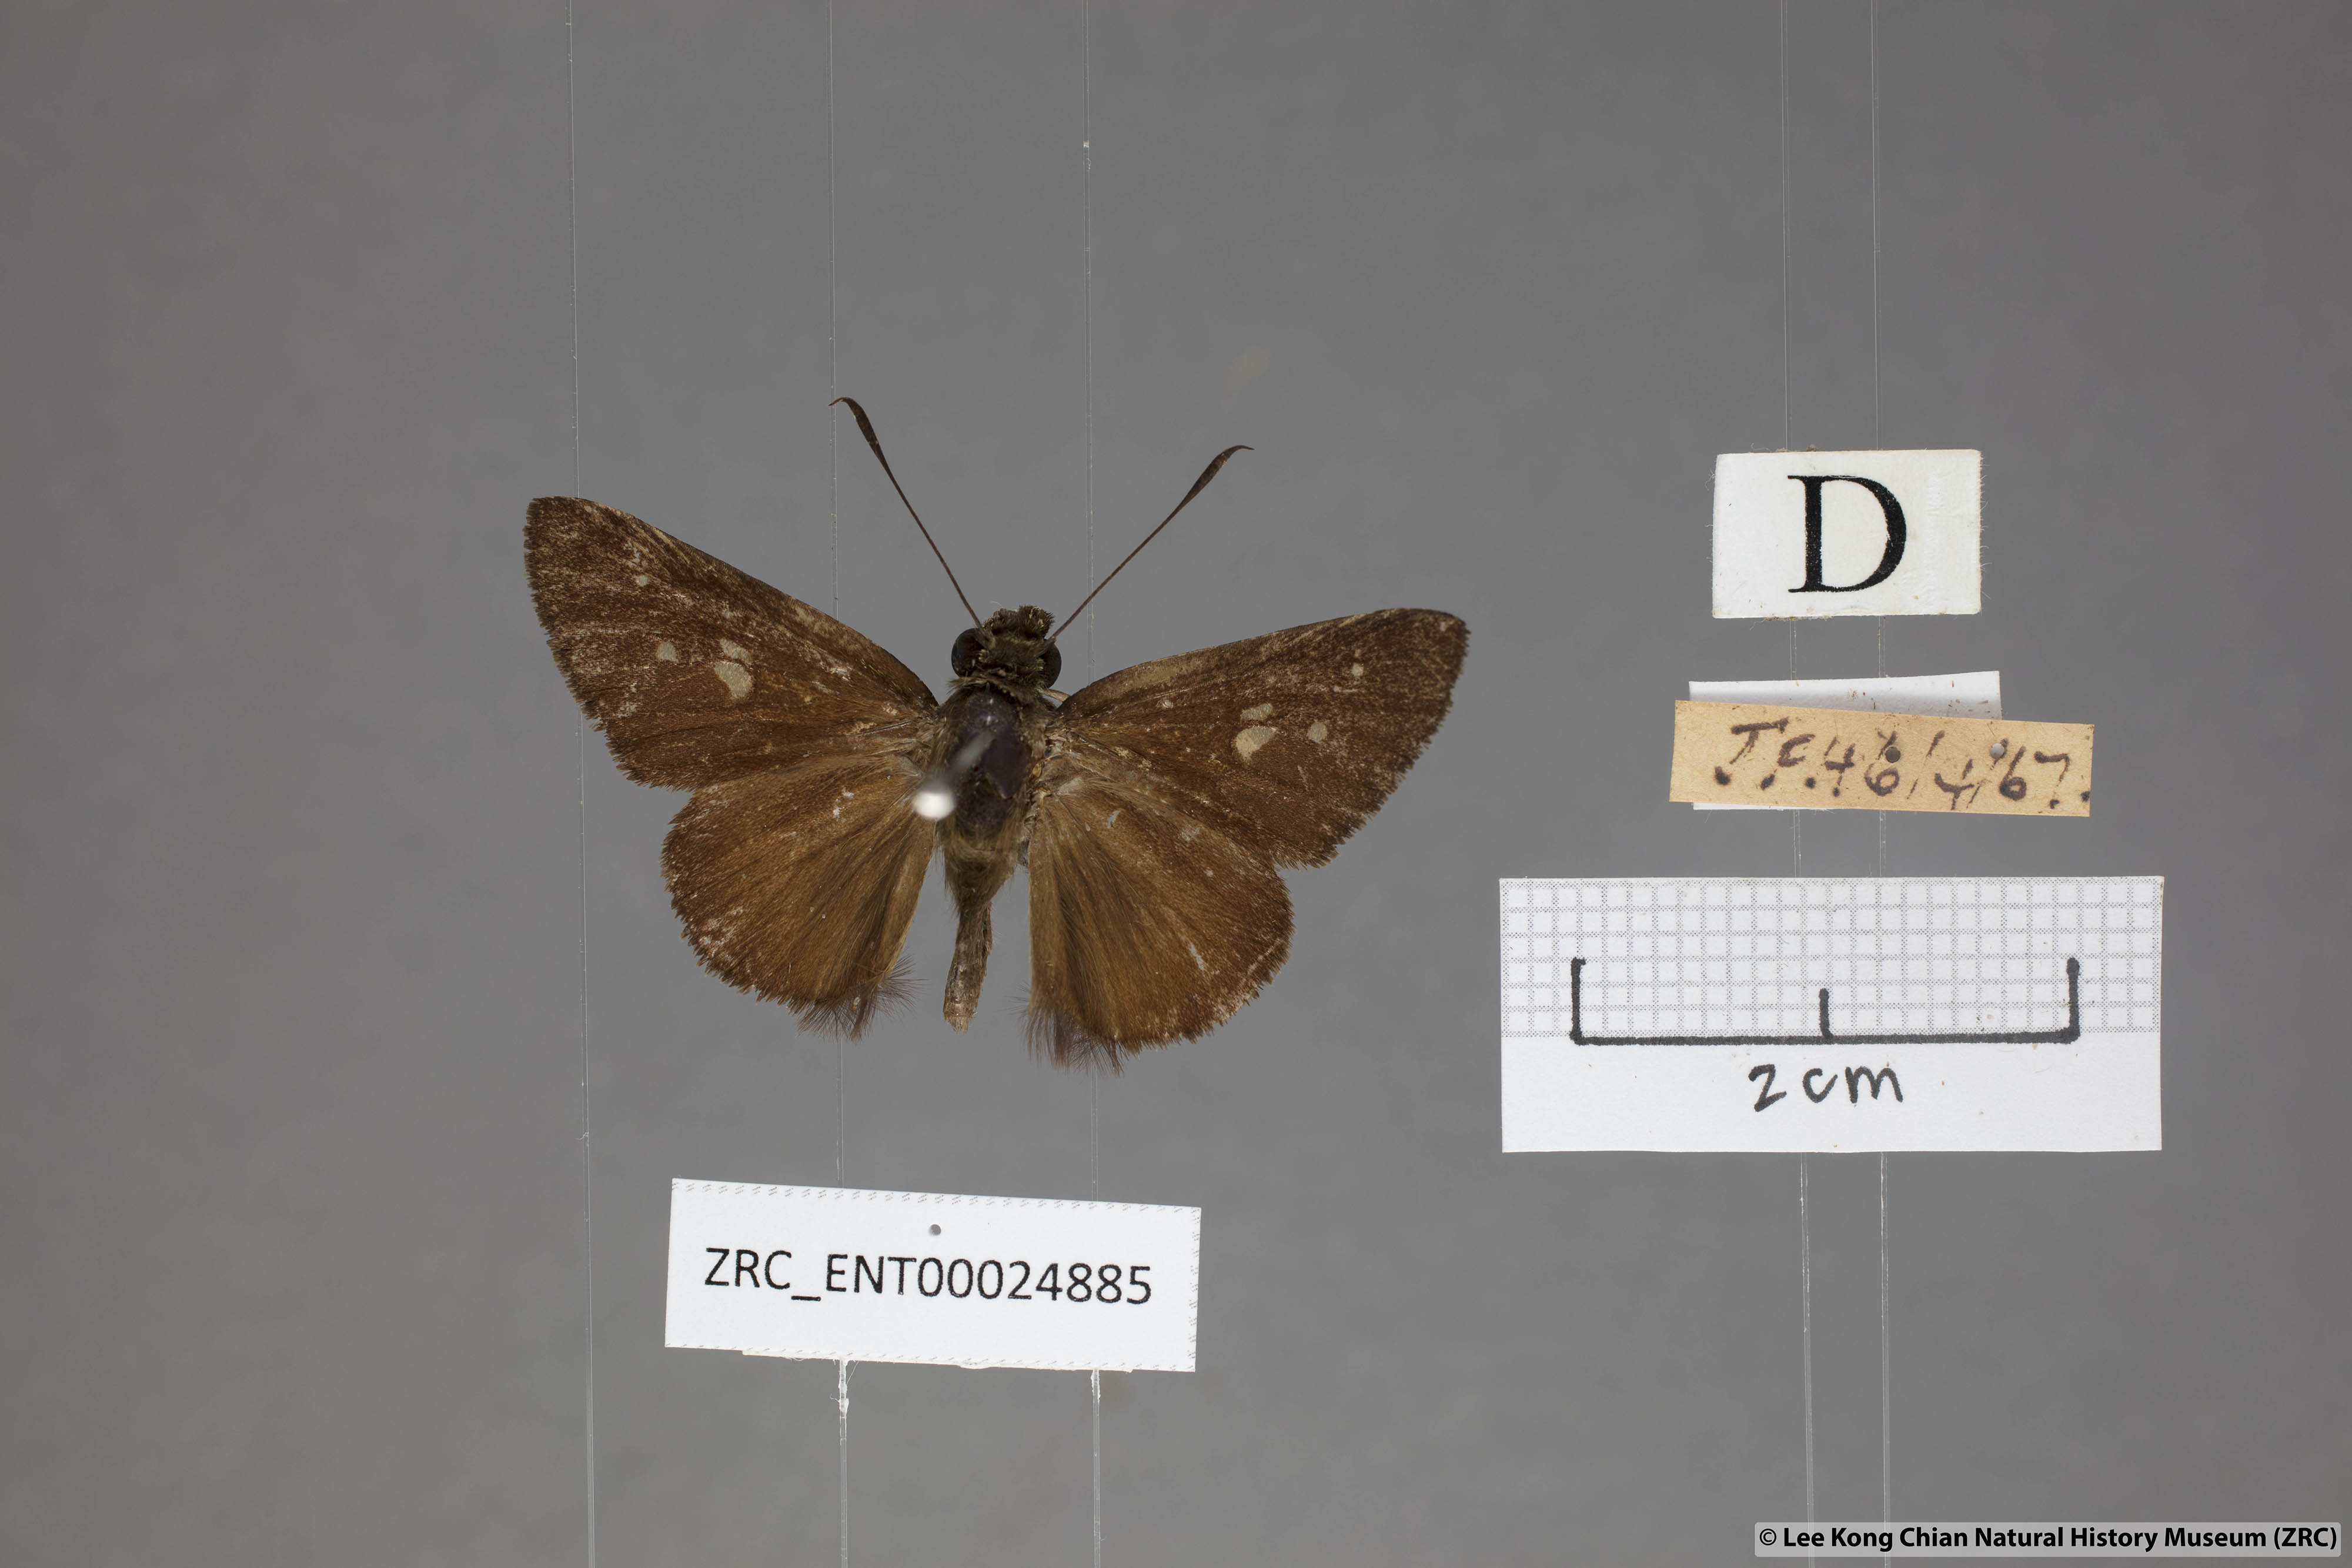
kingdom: Animalia
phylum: Arthropoda
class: Insecta
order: Lepidoptera
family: Hesperiidae
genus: Isma
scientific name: Isma protoclea
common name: Bicolour long-horned flitter
